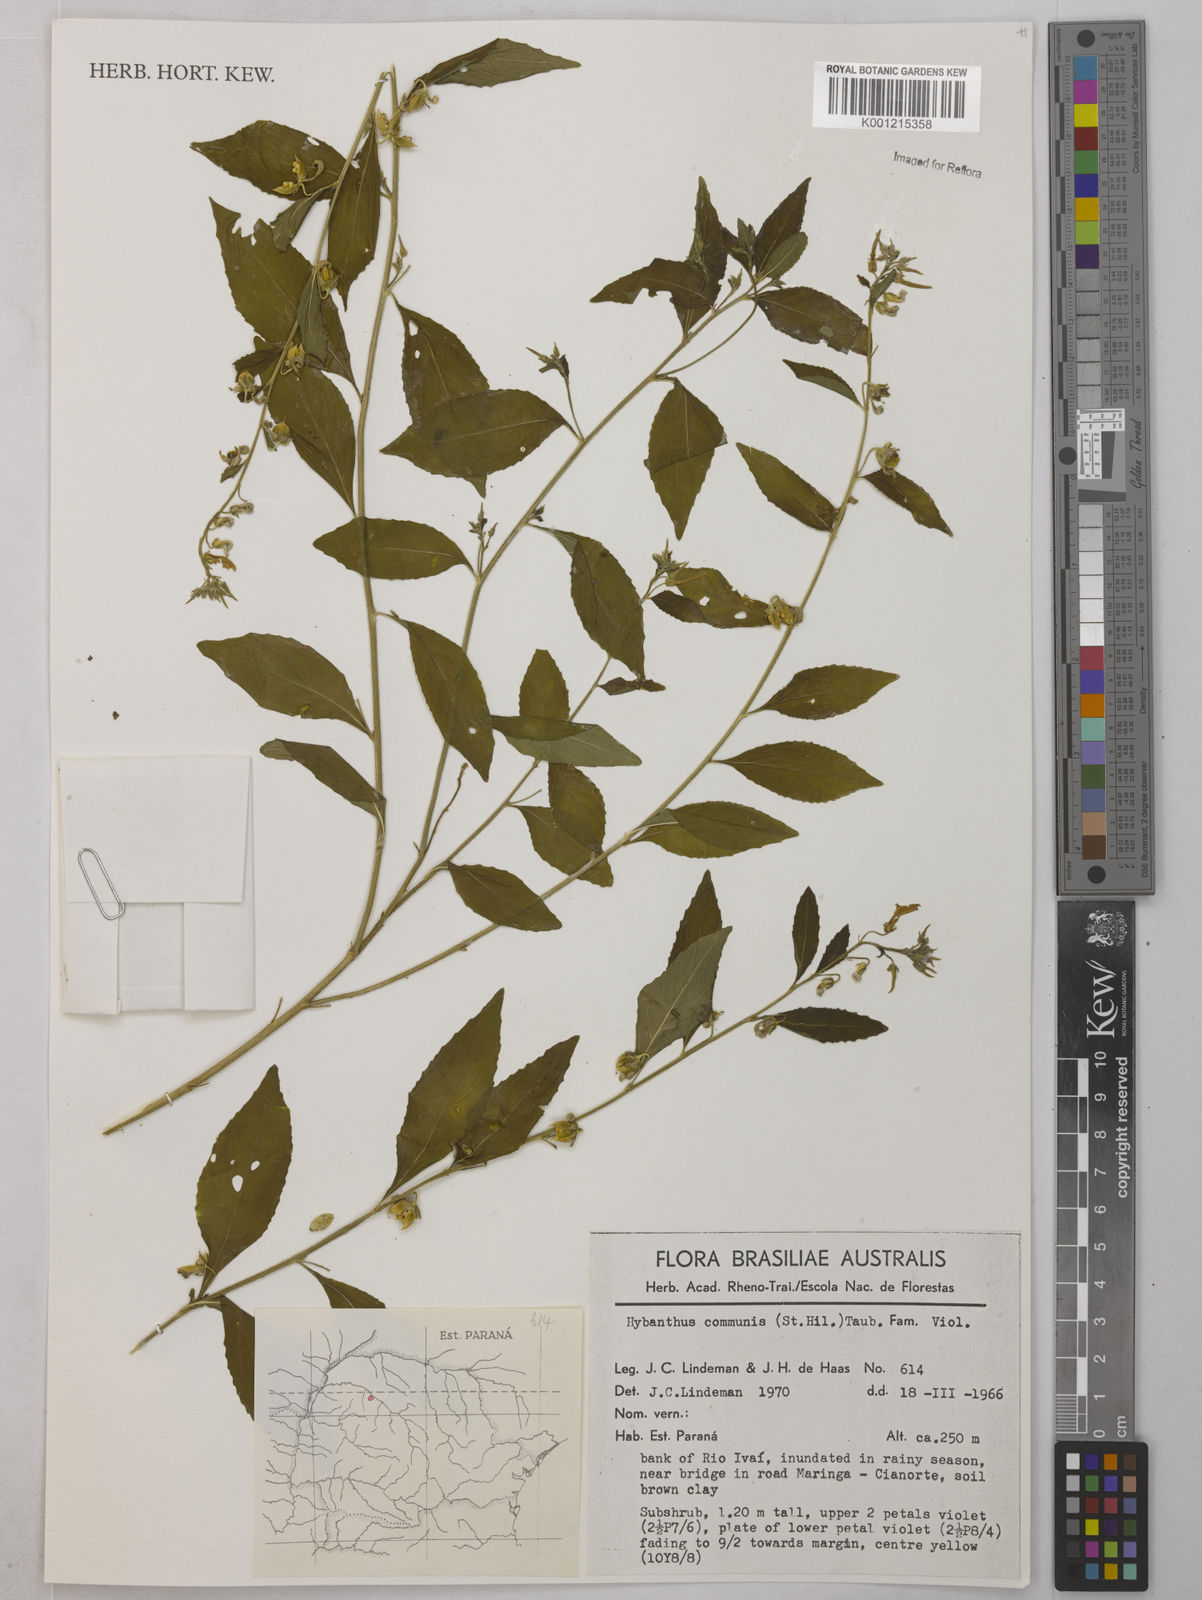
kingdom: Plantae
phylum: Tracheophyta
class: Magnoliopsida
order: Malpighiales
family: Violaceae
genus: Pombalia
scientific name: Pombalia communis
